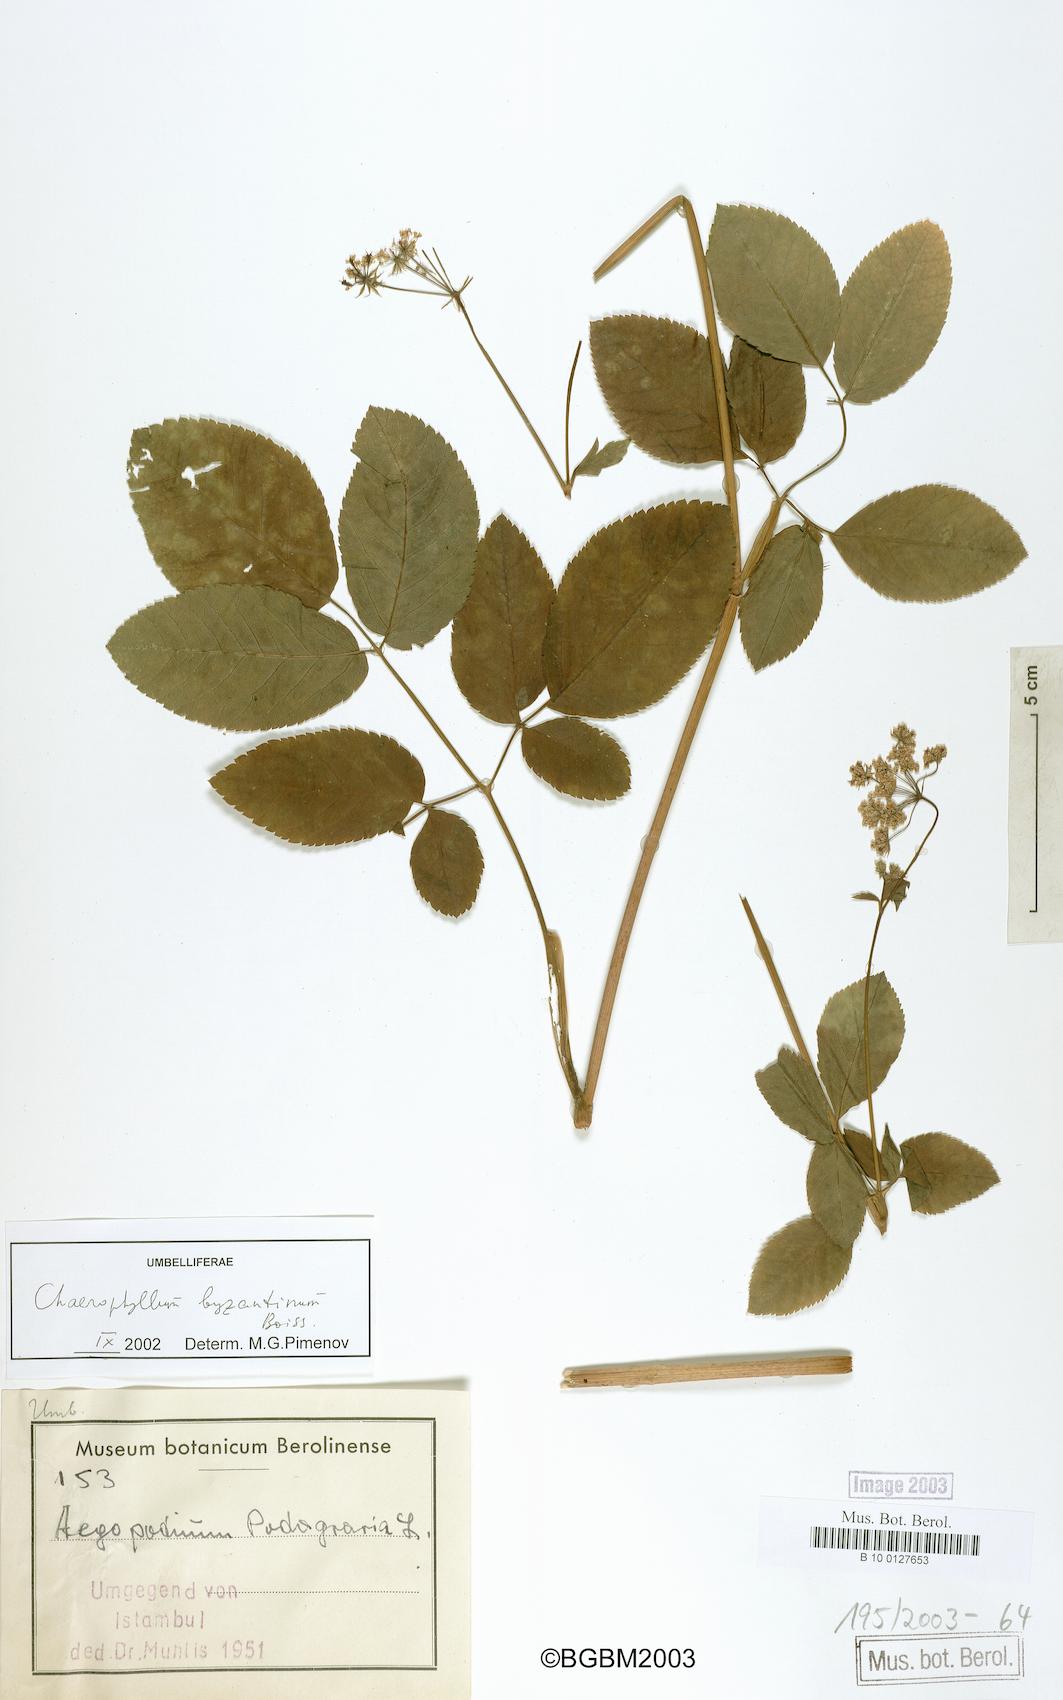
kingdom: Plantae
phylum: Tracheophyta
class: Magnoliopsida
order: Apiales
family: Apiaceae
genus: Chaerophyllum
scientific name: Chaerophyllum byzantinum
